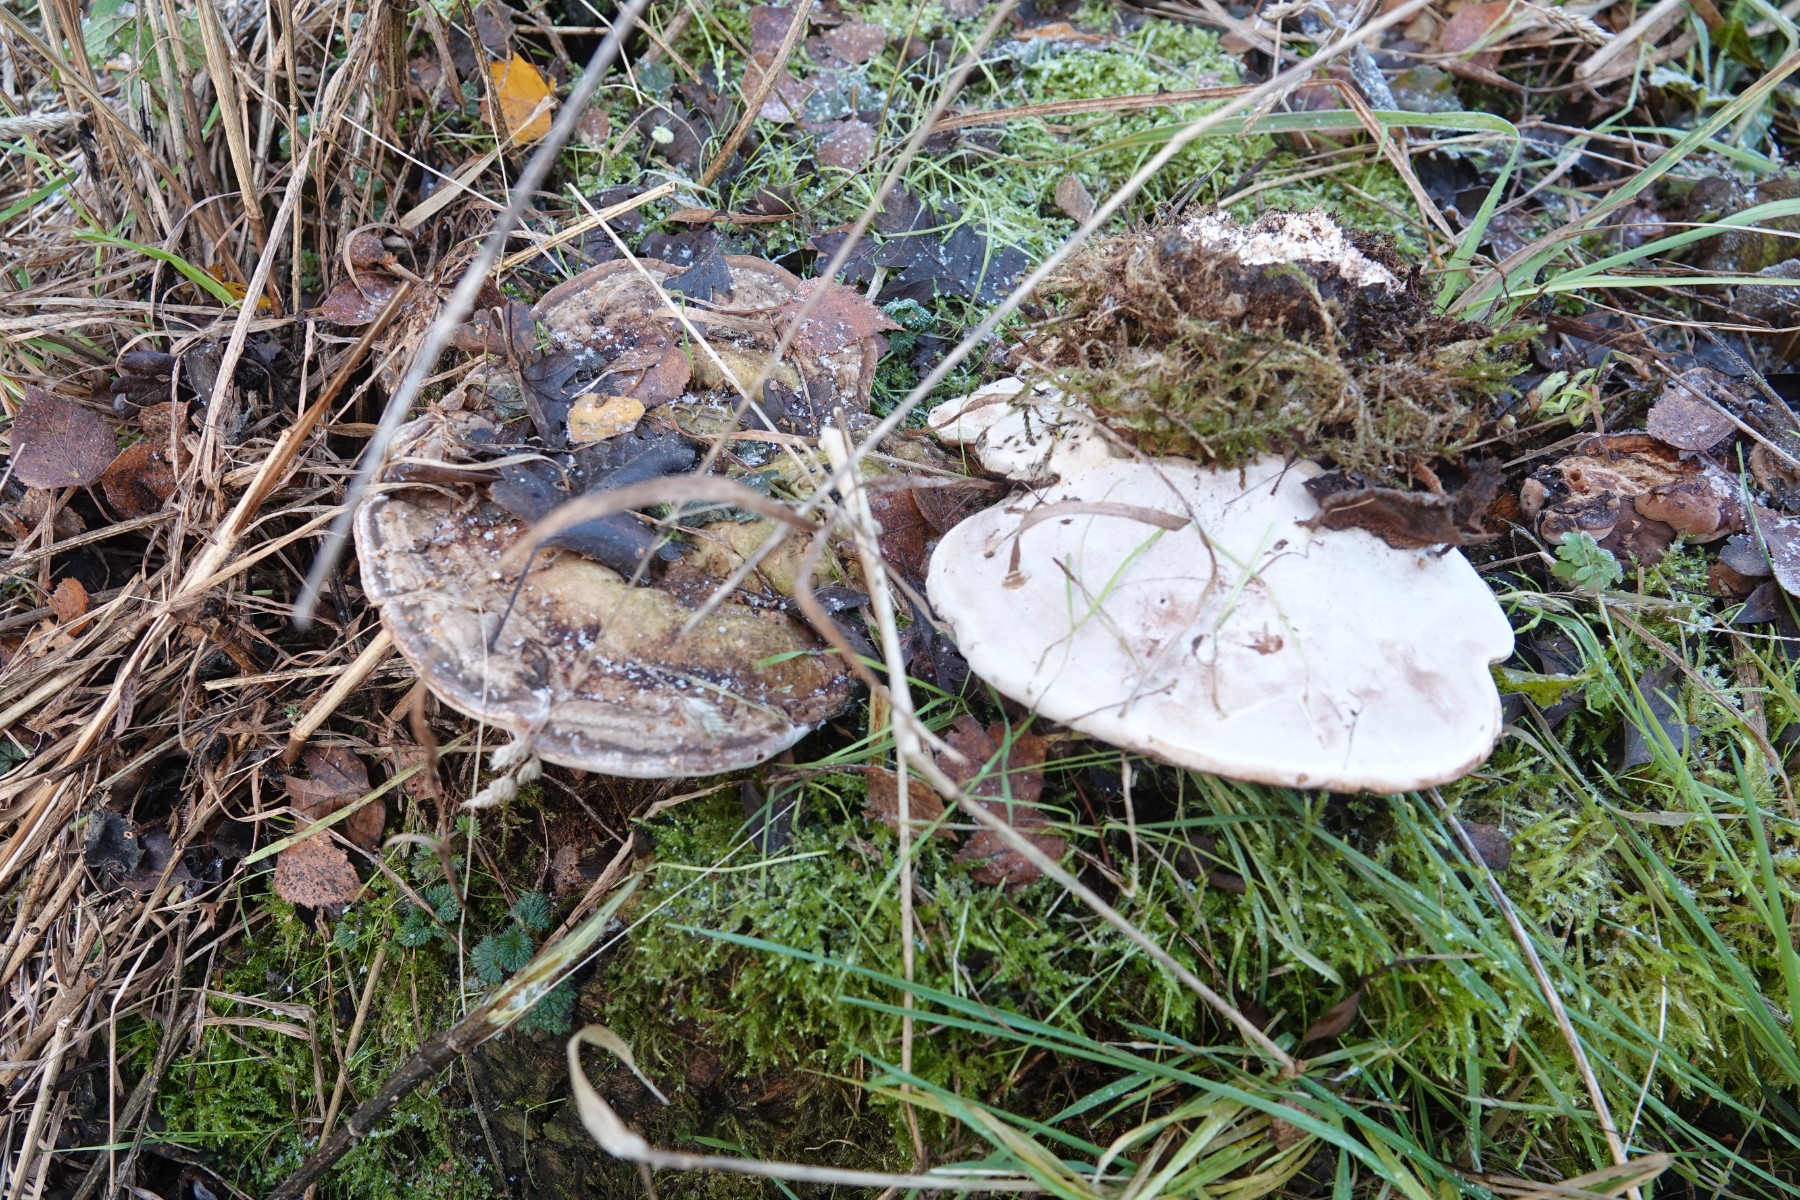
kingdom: Fungi
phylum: Basidiomycota
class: Agaricomycetes
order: Polyporales
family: Polyporaceae
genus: Ganoderma
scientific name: Ganoderma applanatum
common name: flad lakporesvamp
